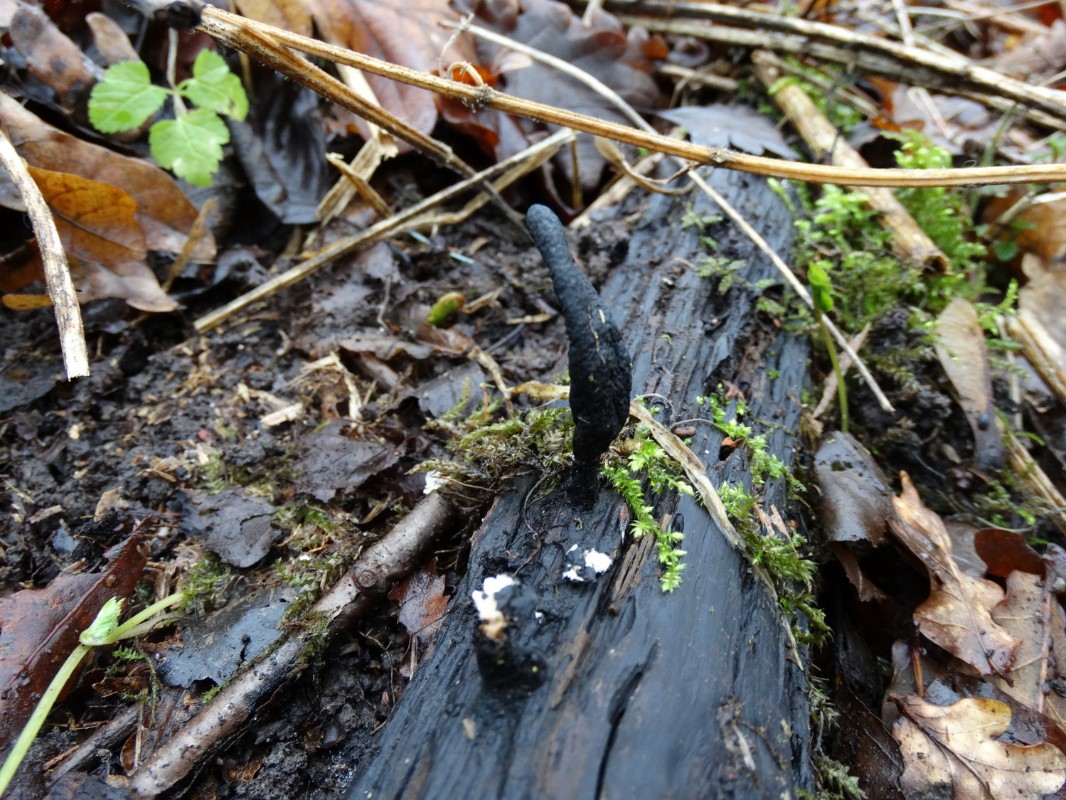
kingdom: Fungi
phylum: Ascomycota
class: Sordariomycetes
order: Xylariales
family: Xylariaceae
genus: Xylaria
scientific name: Xylaria longipes
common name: slank stødsvamp
